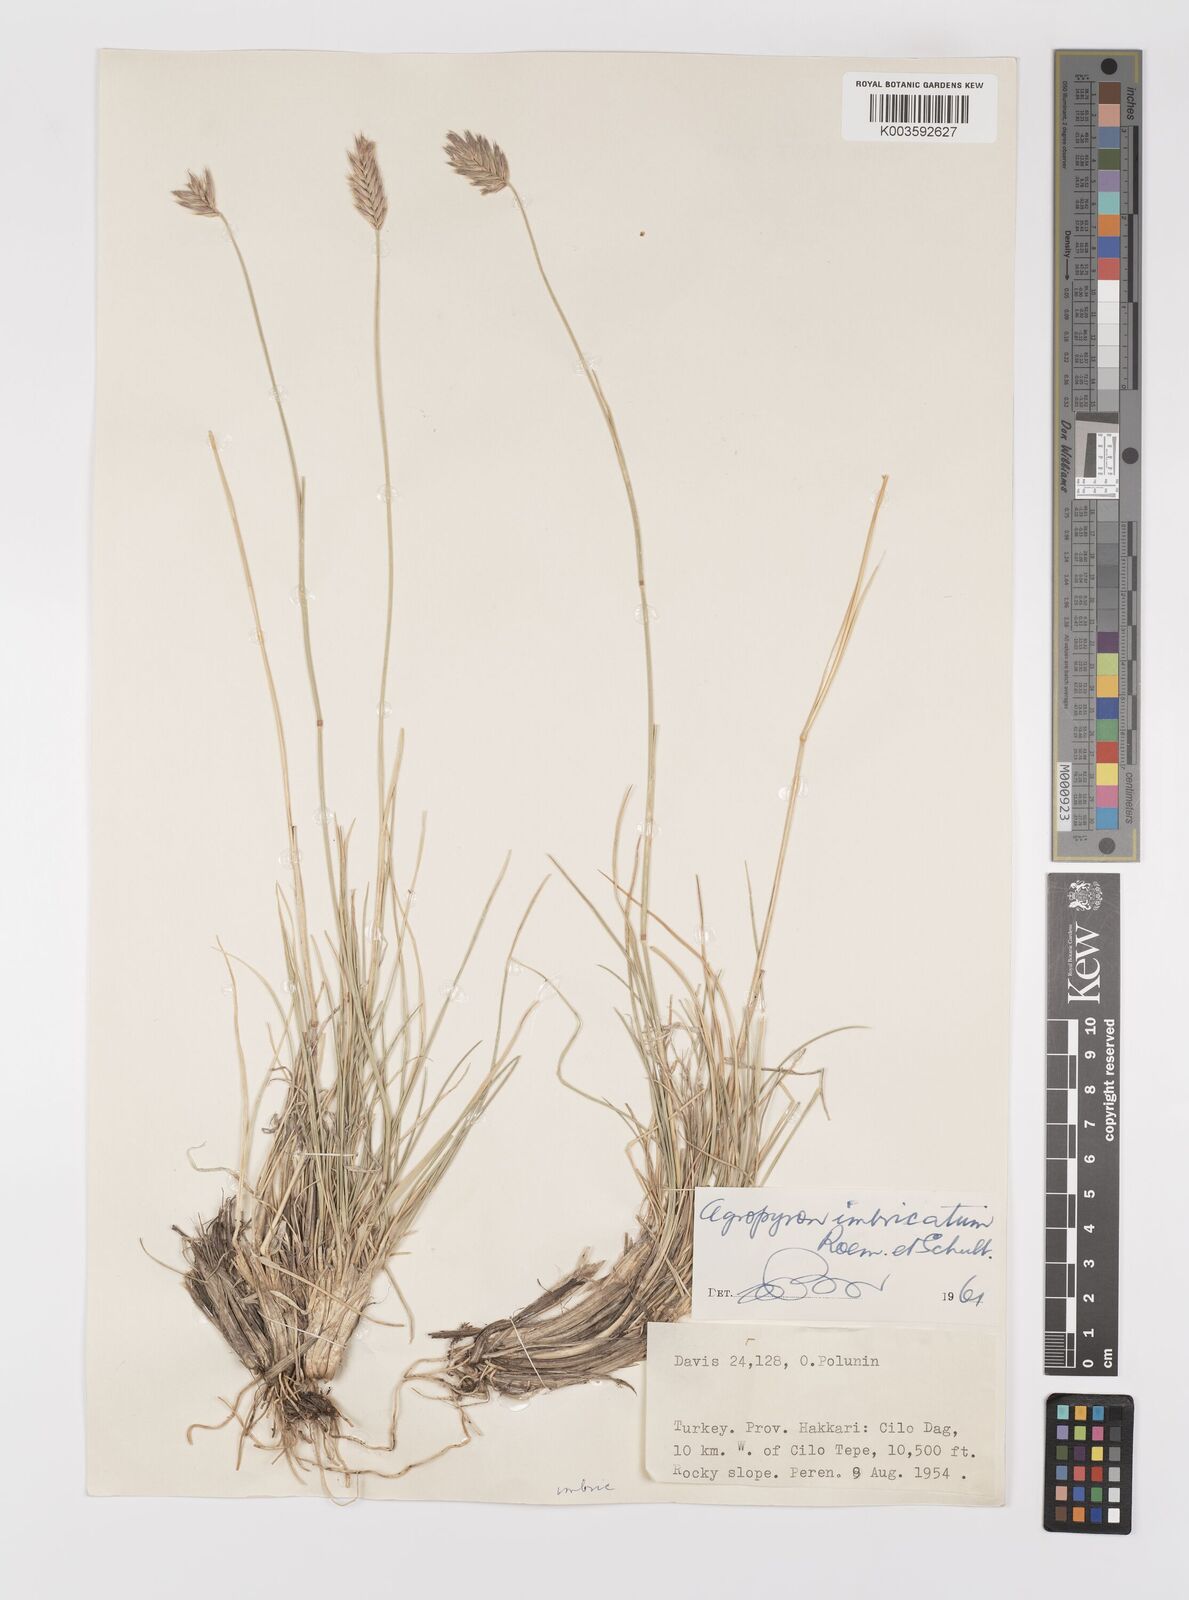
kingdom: Plantae
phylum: Tracheophyta
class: Liliopsida
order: Poales
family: Poaceae
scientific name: Poaceae
